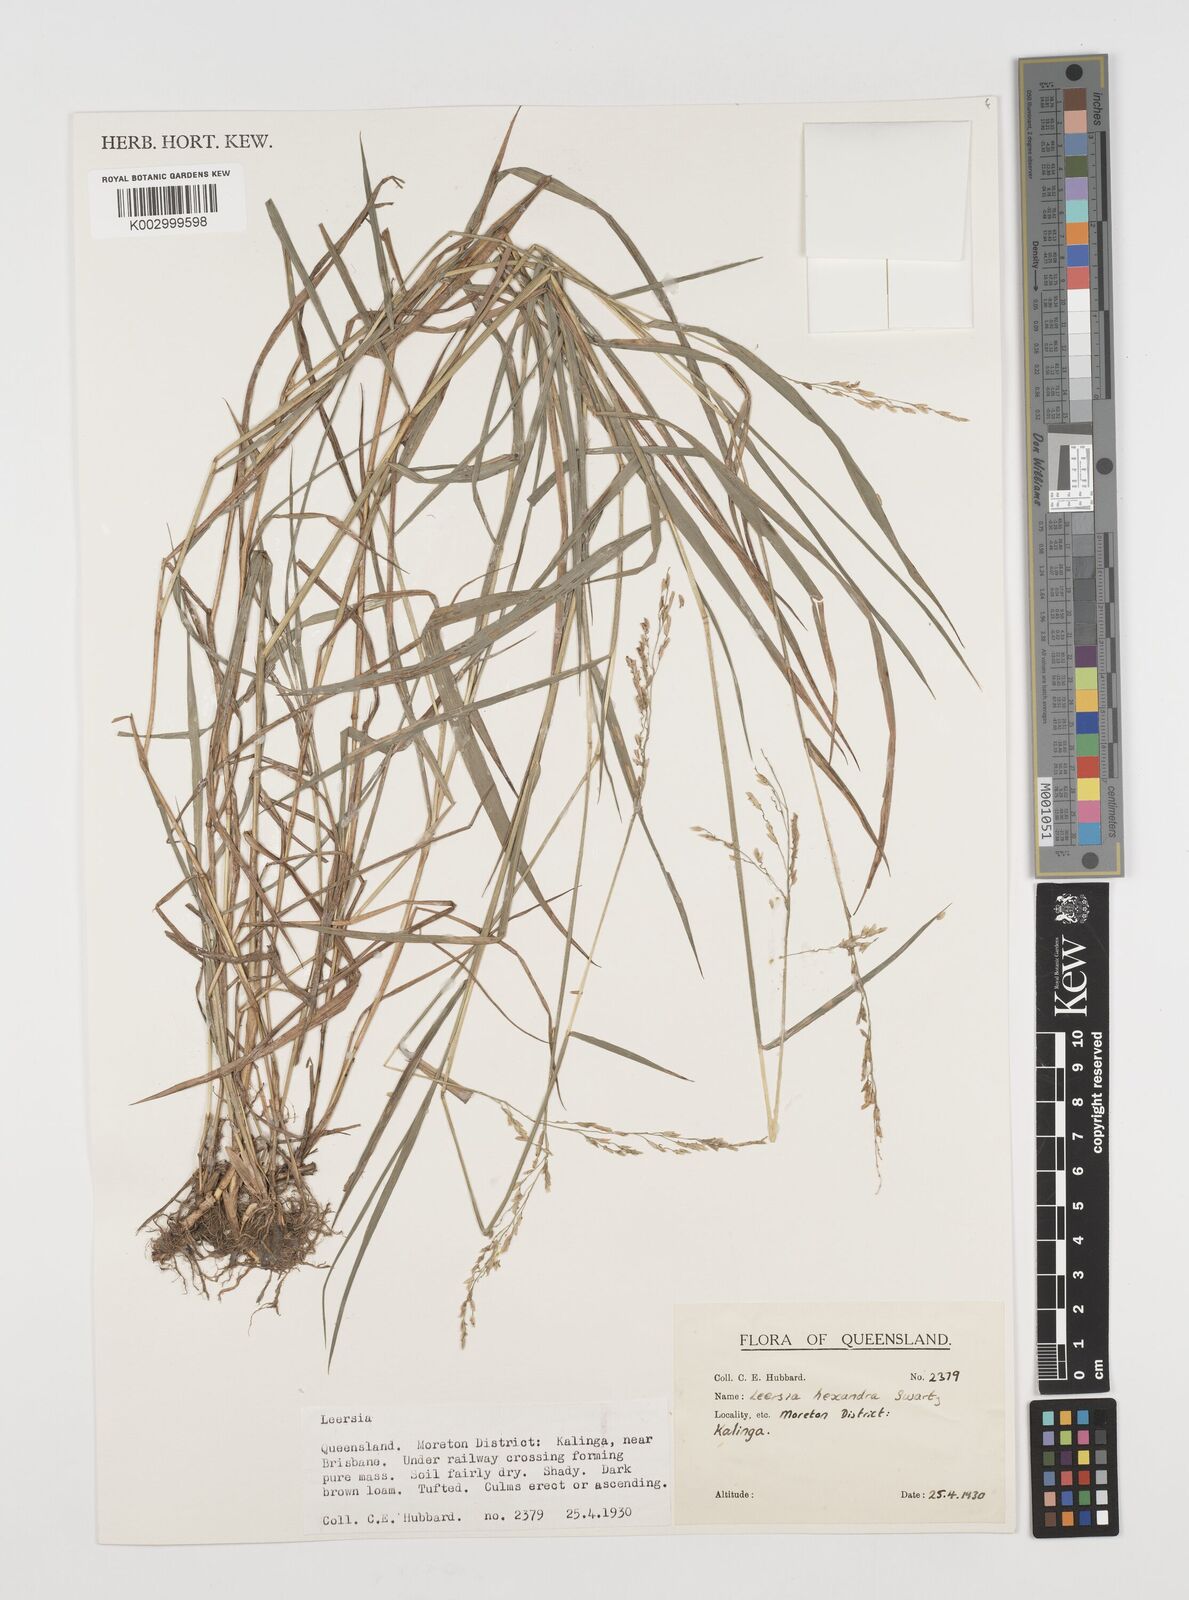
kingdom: Plantae
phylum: Tracheophyta
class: Liliopsida
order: Poales
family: Poaceae
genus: Leersia
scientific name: Leersia hexandra
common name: Southern cut grass
